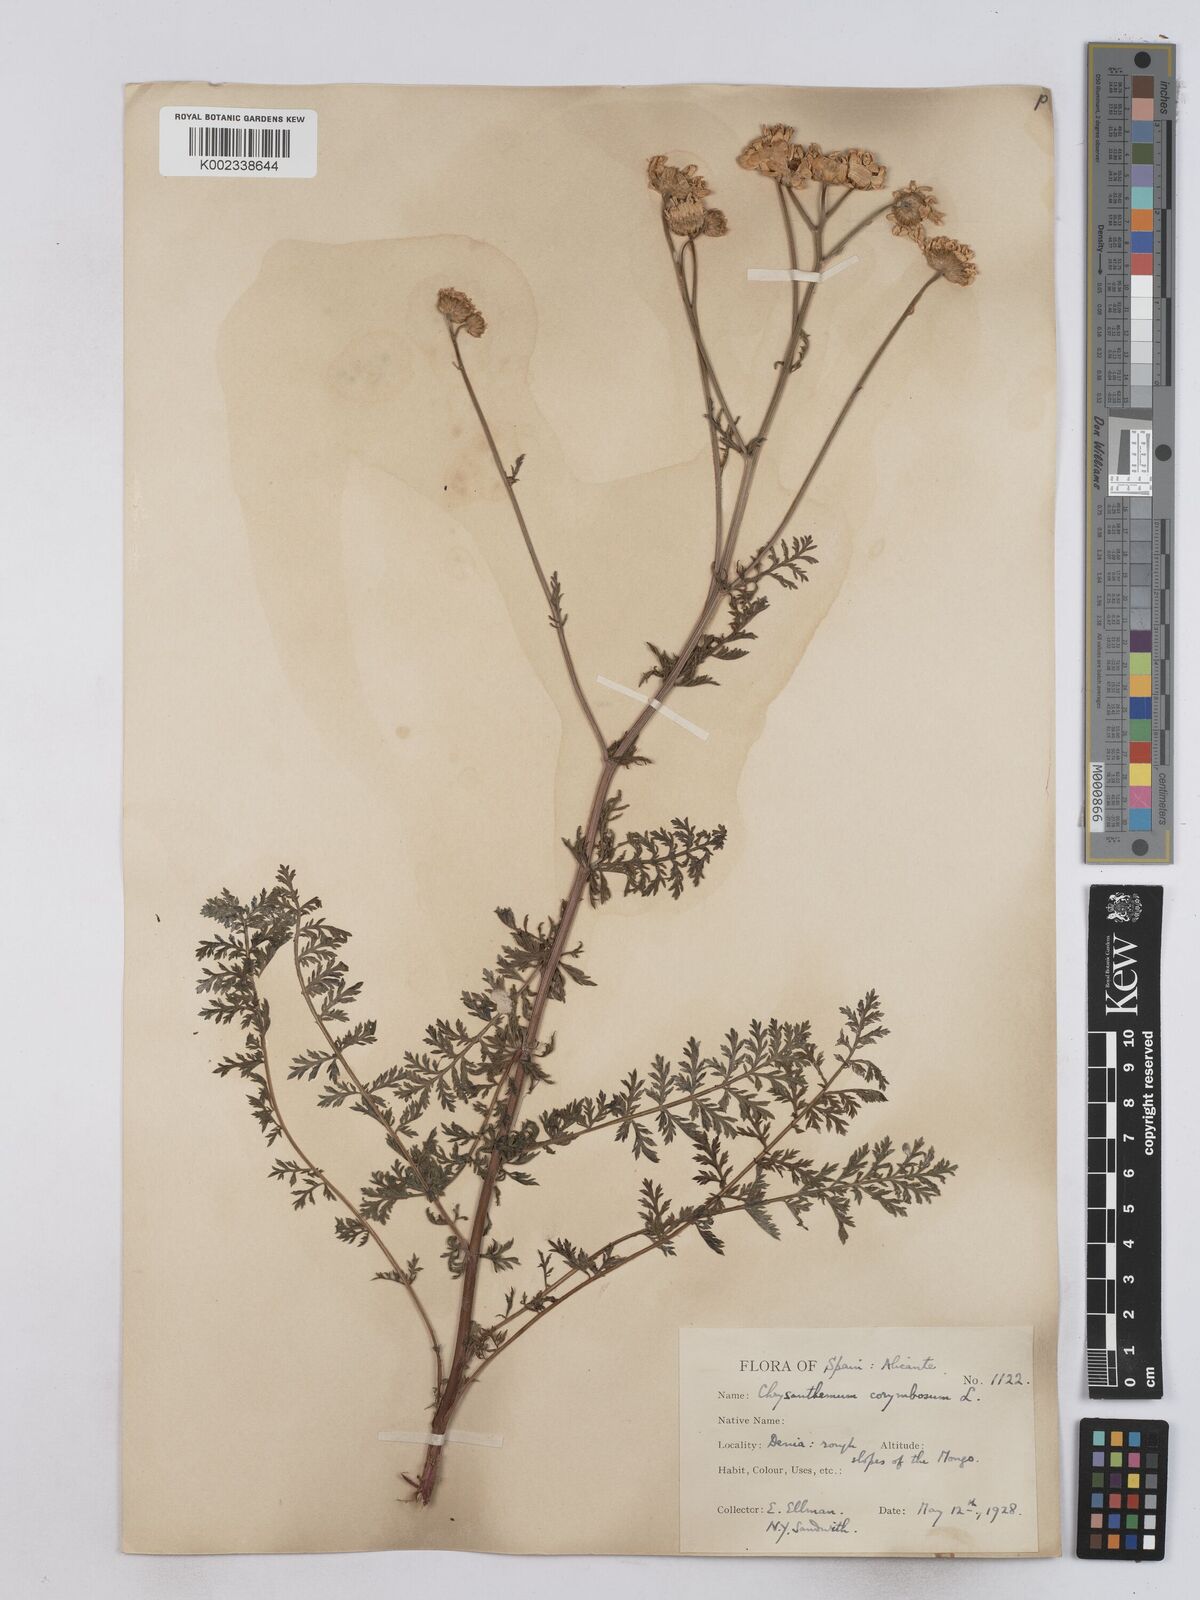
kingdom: Plantae
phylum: Tracheophyta
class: Magnoliopsida
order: Asterales
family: Asteraceae
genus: Tanacetum
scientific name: Tanacetum corymbosum
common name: Scentless feverfew
